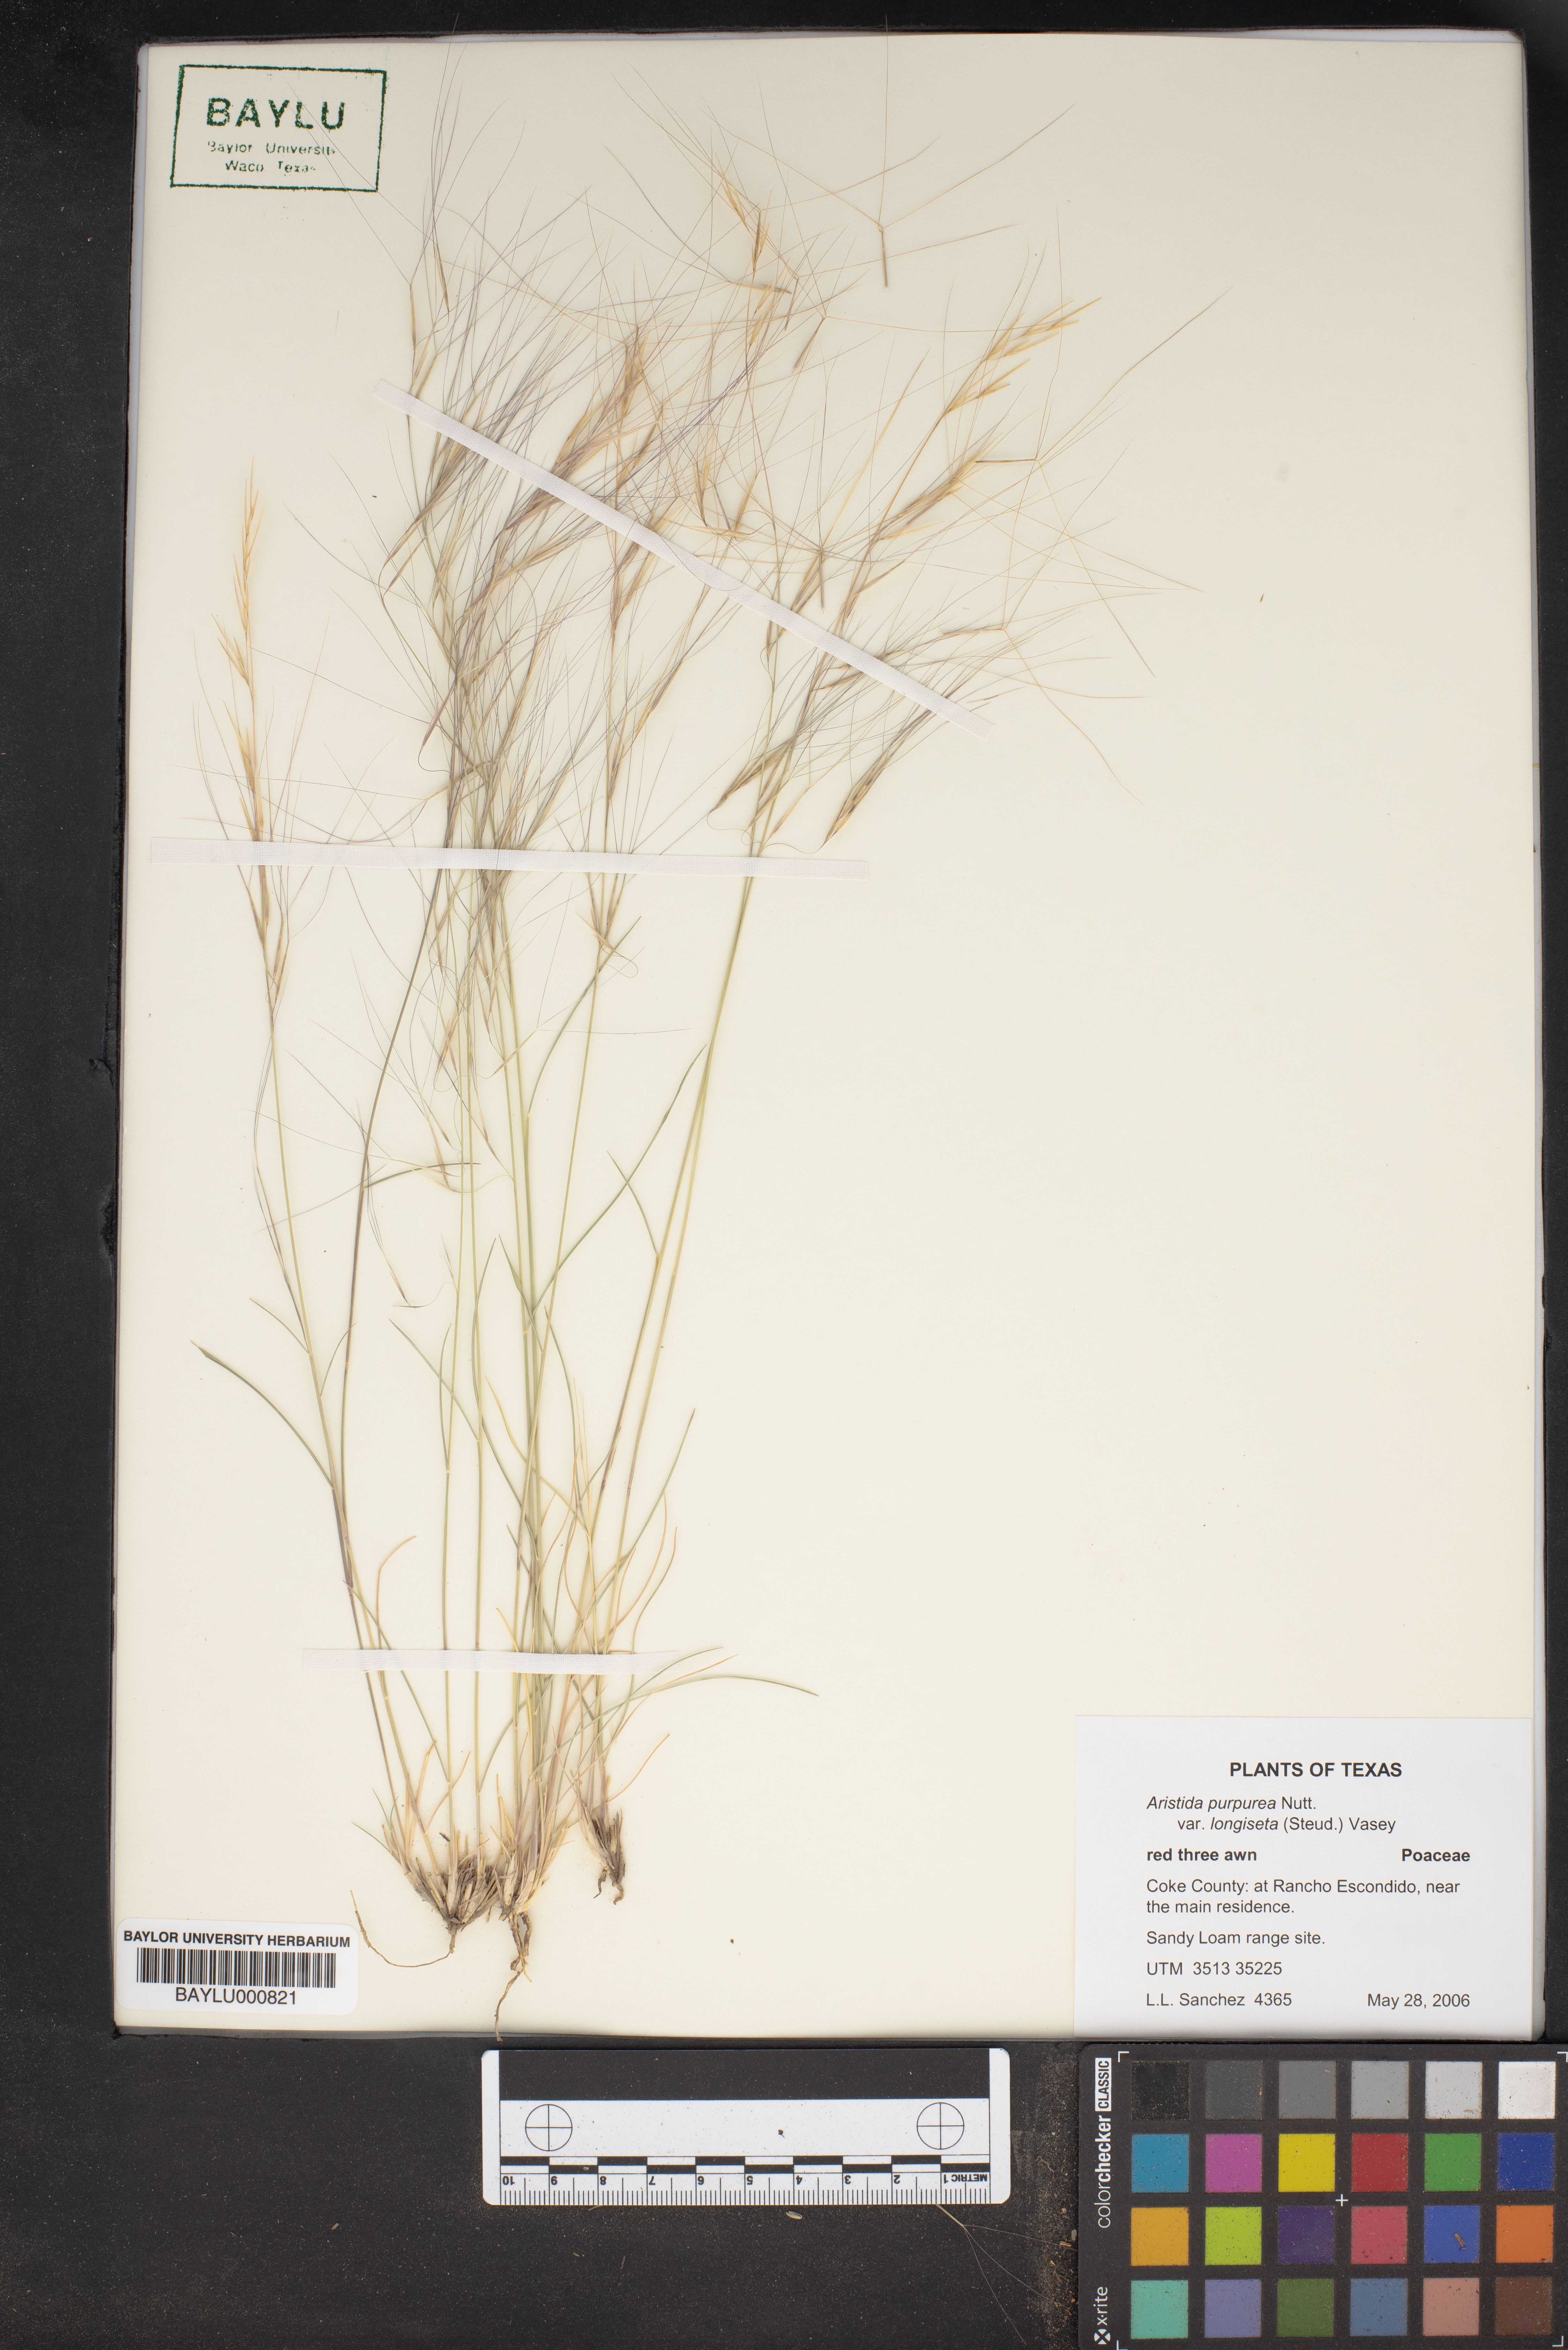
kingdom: Plantae
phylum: Tracheophyta
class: Liliopsida
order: Poales
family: Poaceae
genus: Aristida
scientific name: Aristida longiseta
